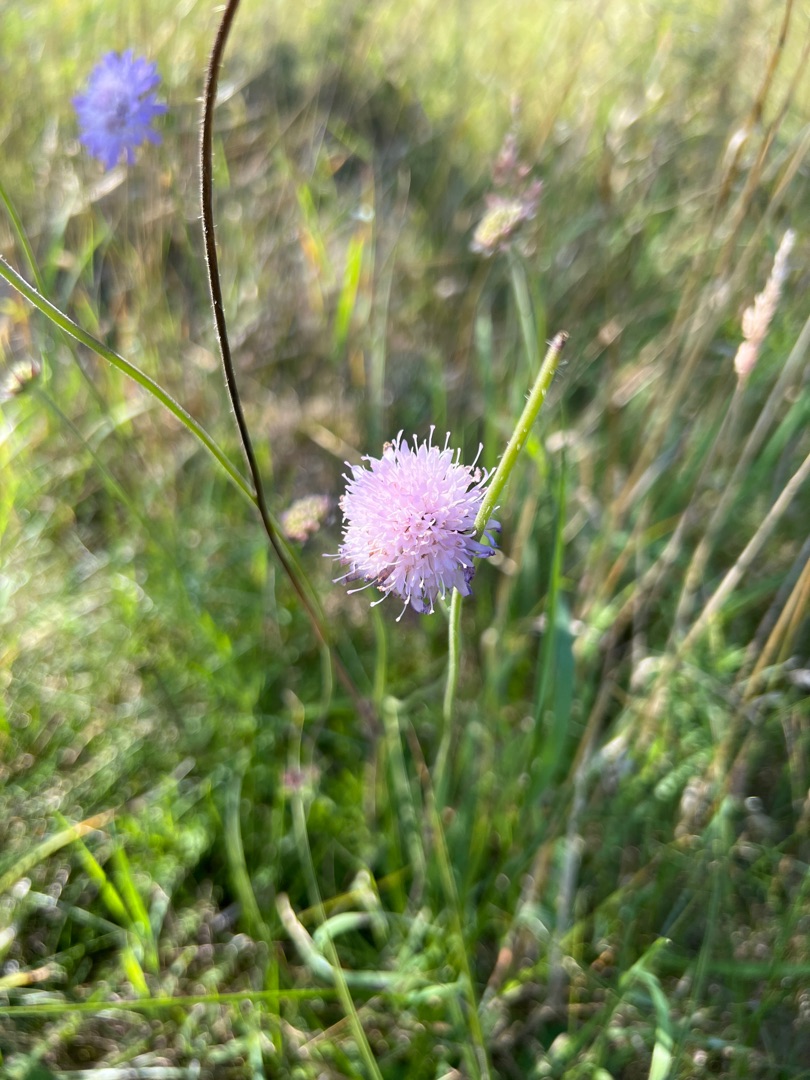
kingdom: Plantae
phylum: Tracheophyta
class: Magnoliopsida
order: Dipsacales
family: Caprifoliaceae
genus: Knautia
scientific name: Knautia arvensis
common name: Blåhat
